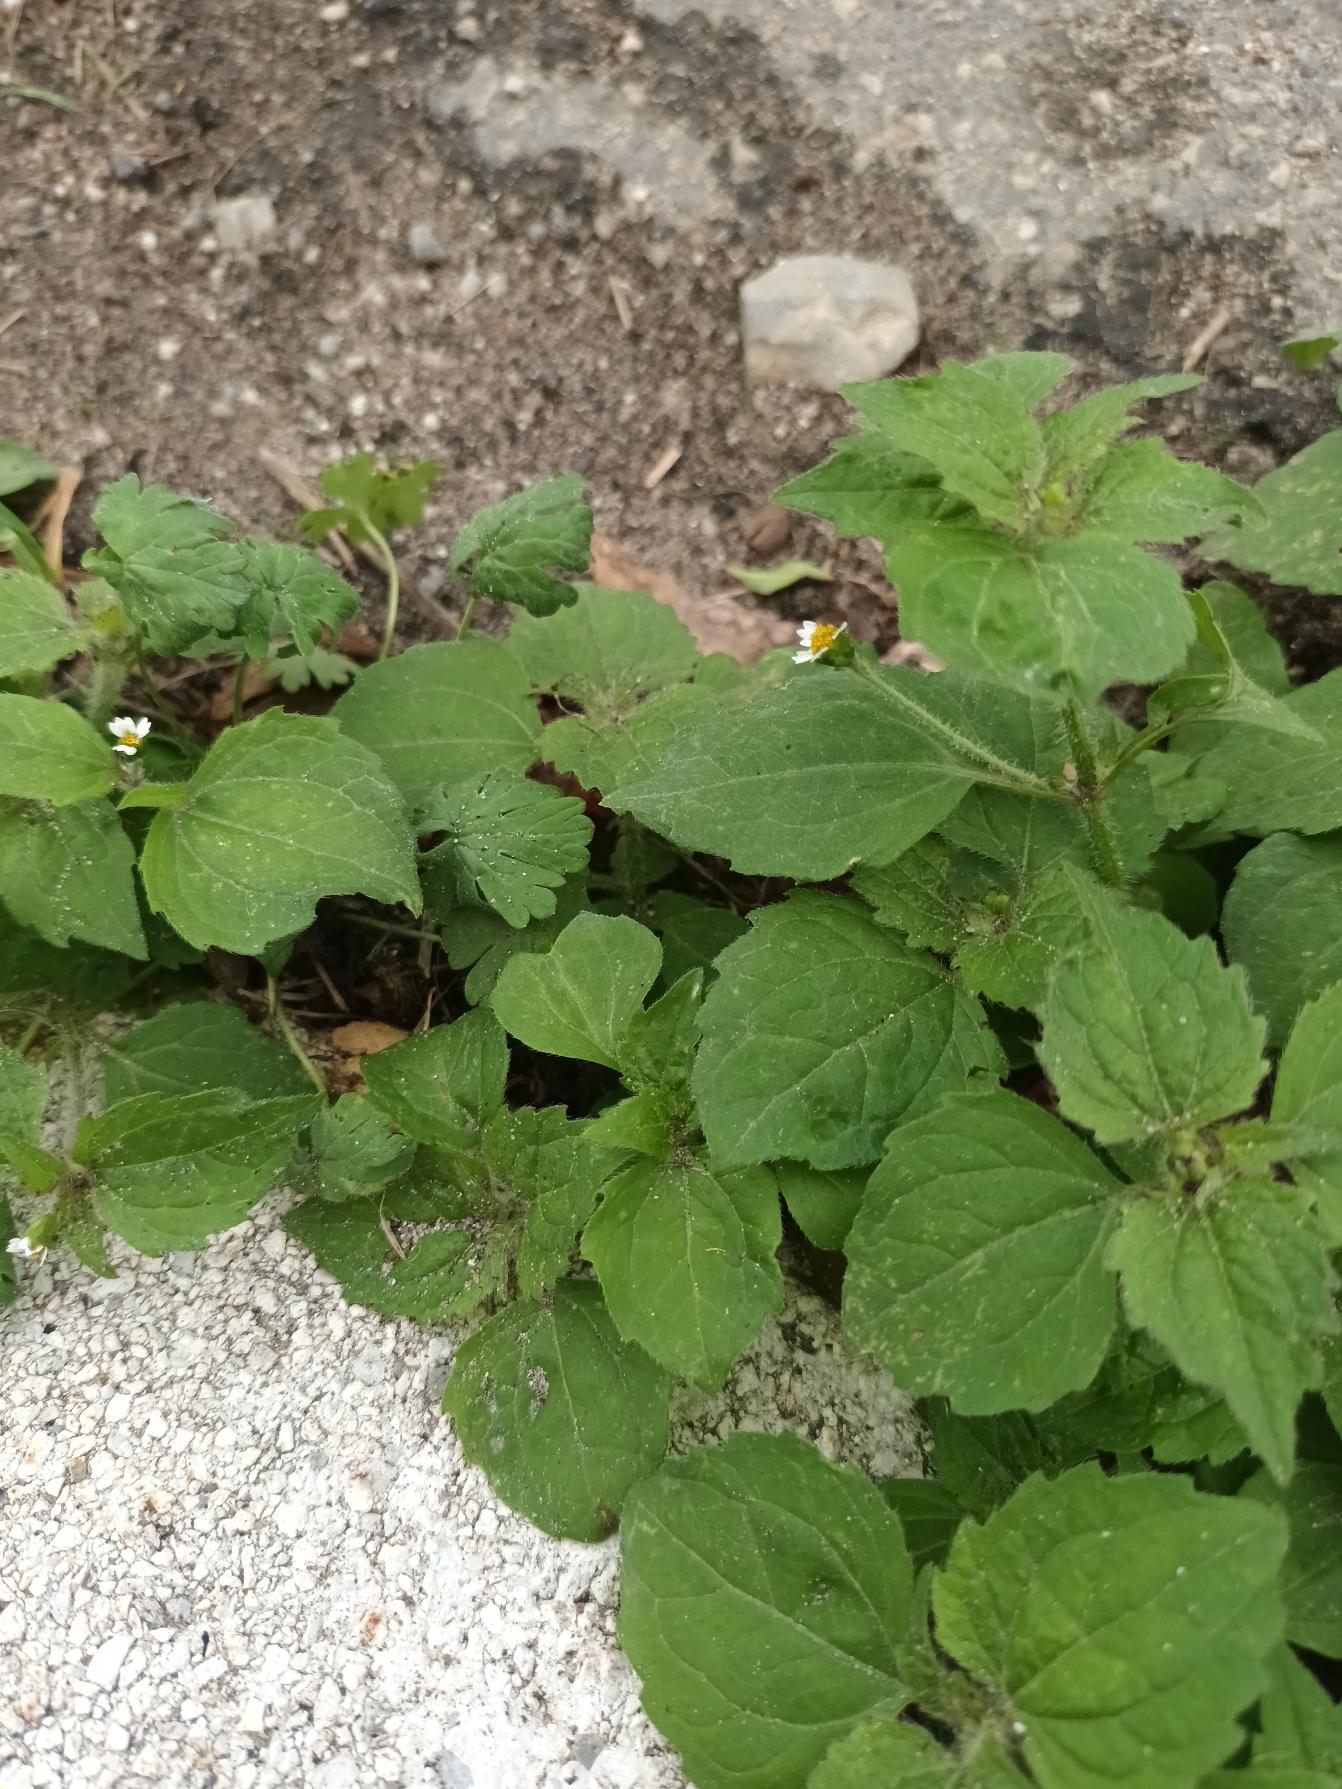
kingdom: Plantae
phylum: Tracheophyta
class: Magnoliopsida
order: Asterales
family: Asteraceae
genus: Galinsoga
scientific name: Galinsoga quadriradiata
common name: Kirtel-kortstråle
